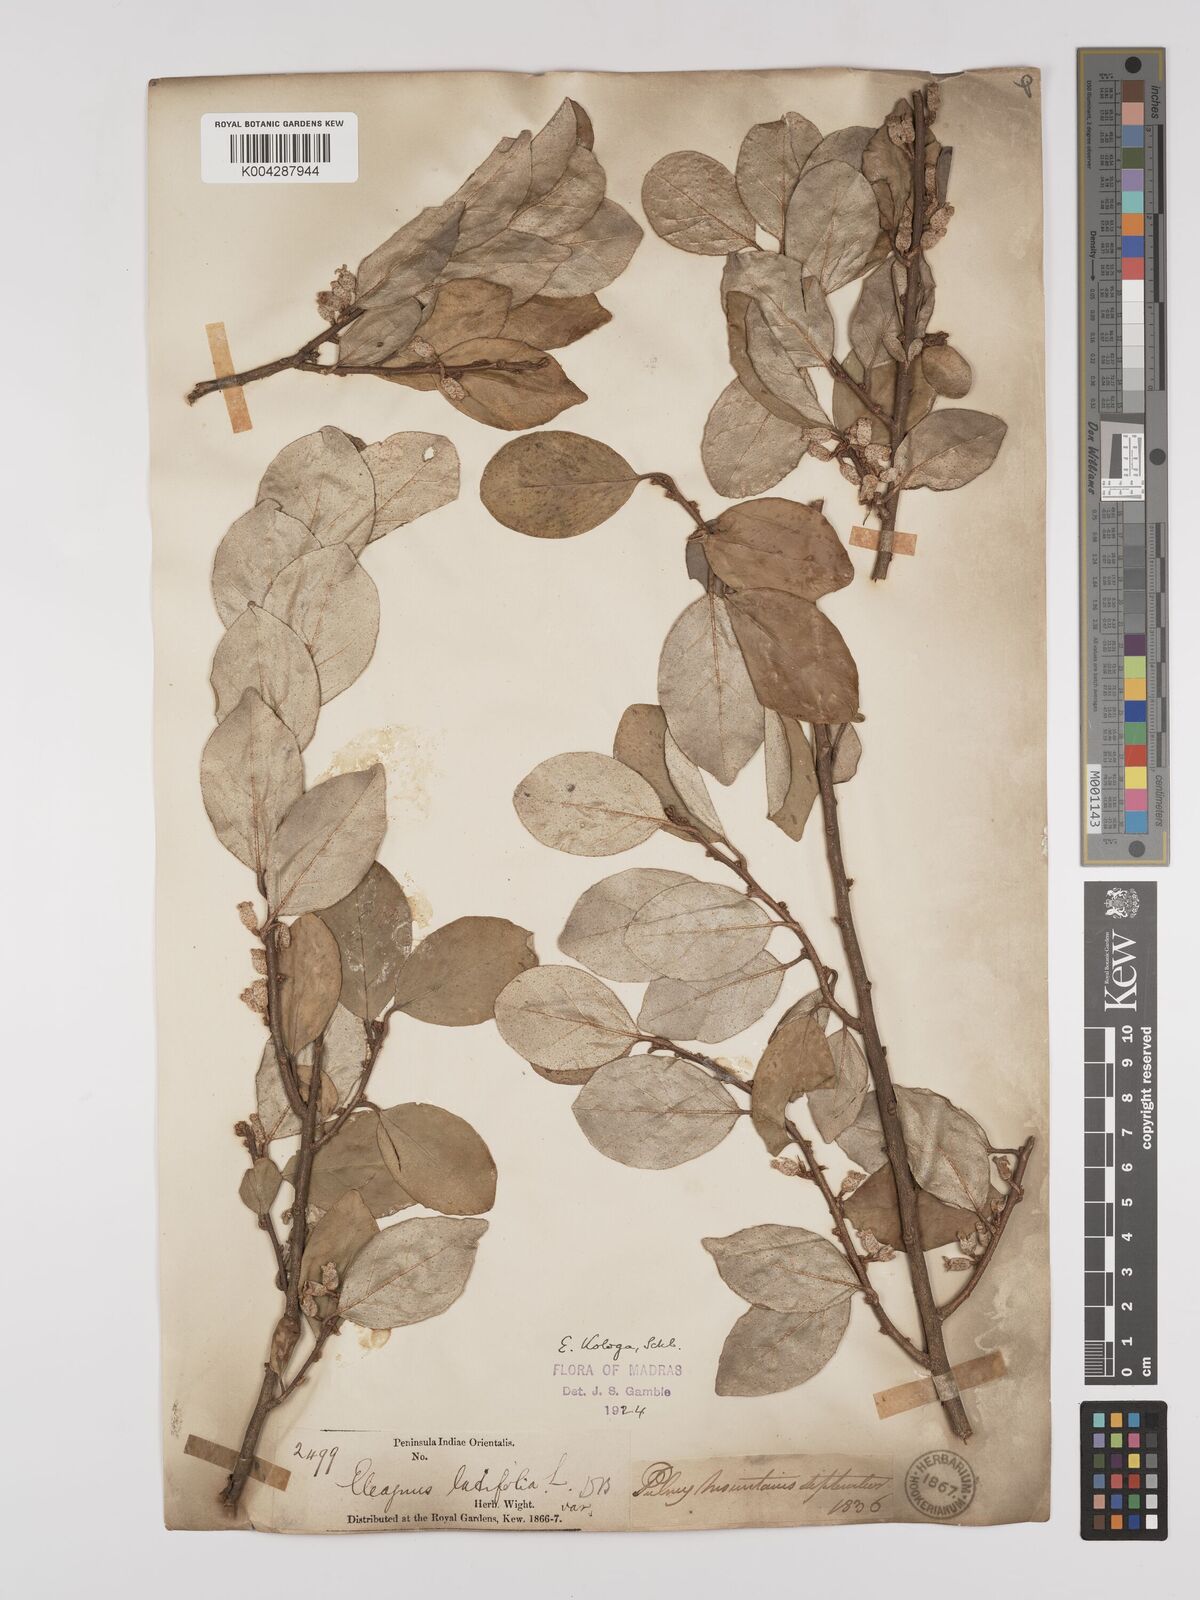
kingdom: Plantae
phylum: Tracheophyta
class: Magnoliopsida
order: Rosales
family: Elaeagnaceae
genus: Elaeagnus
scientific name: Elaeagnus latifolia
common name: Oleaster
